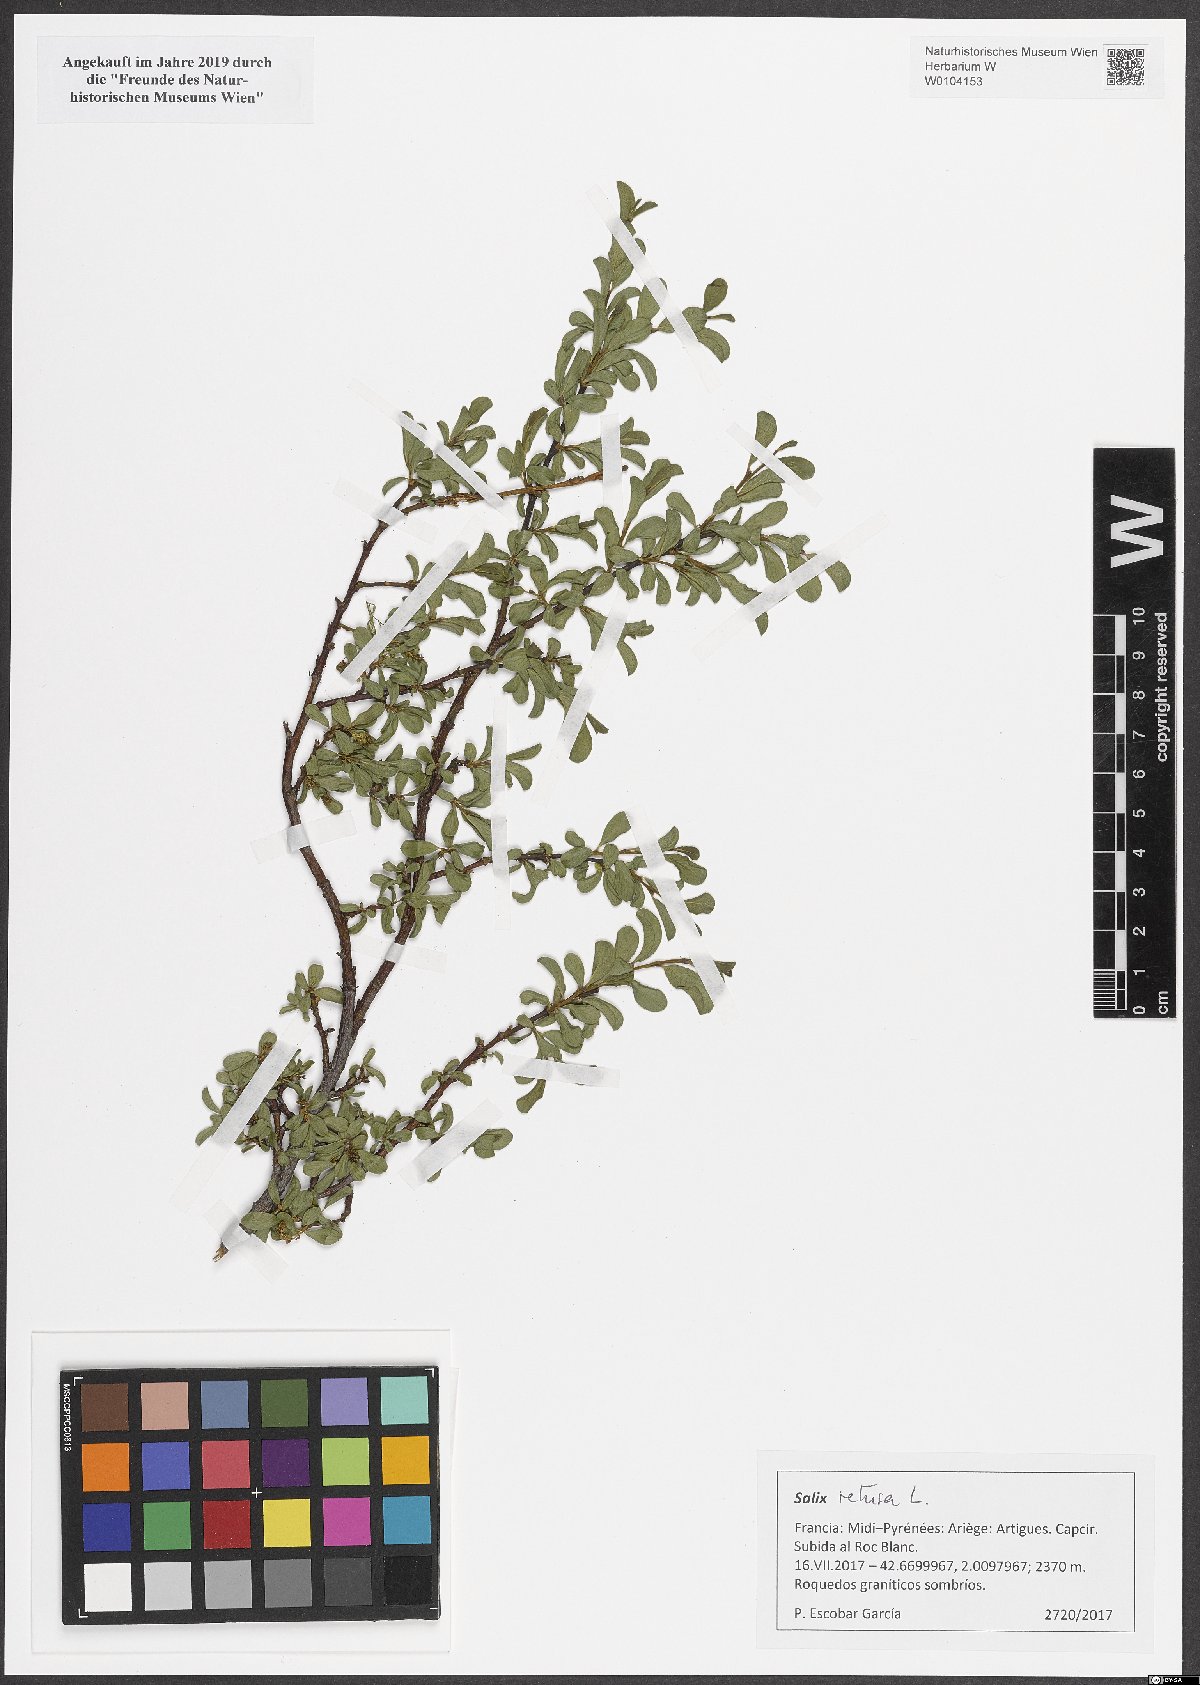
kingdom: Plantae
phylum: Tracheophyta
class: Magnoliopsida
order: Malpighiales
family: Salicaceae
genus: Salix
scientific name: Salix retusa
